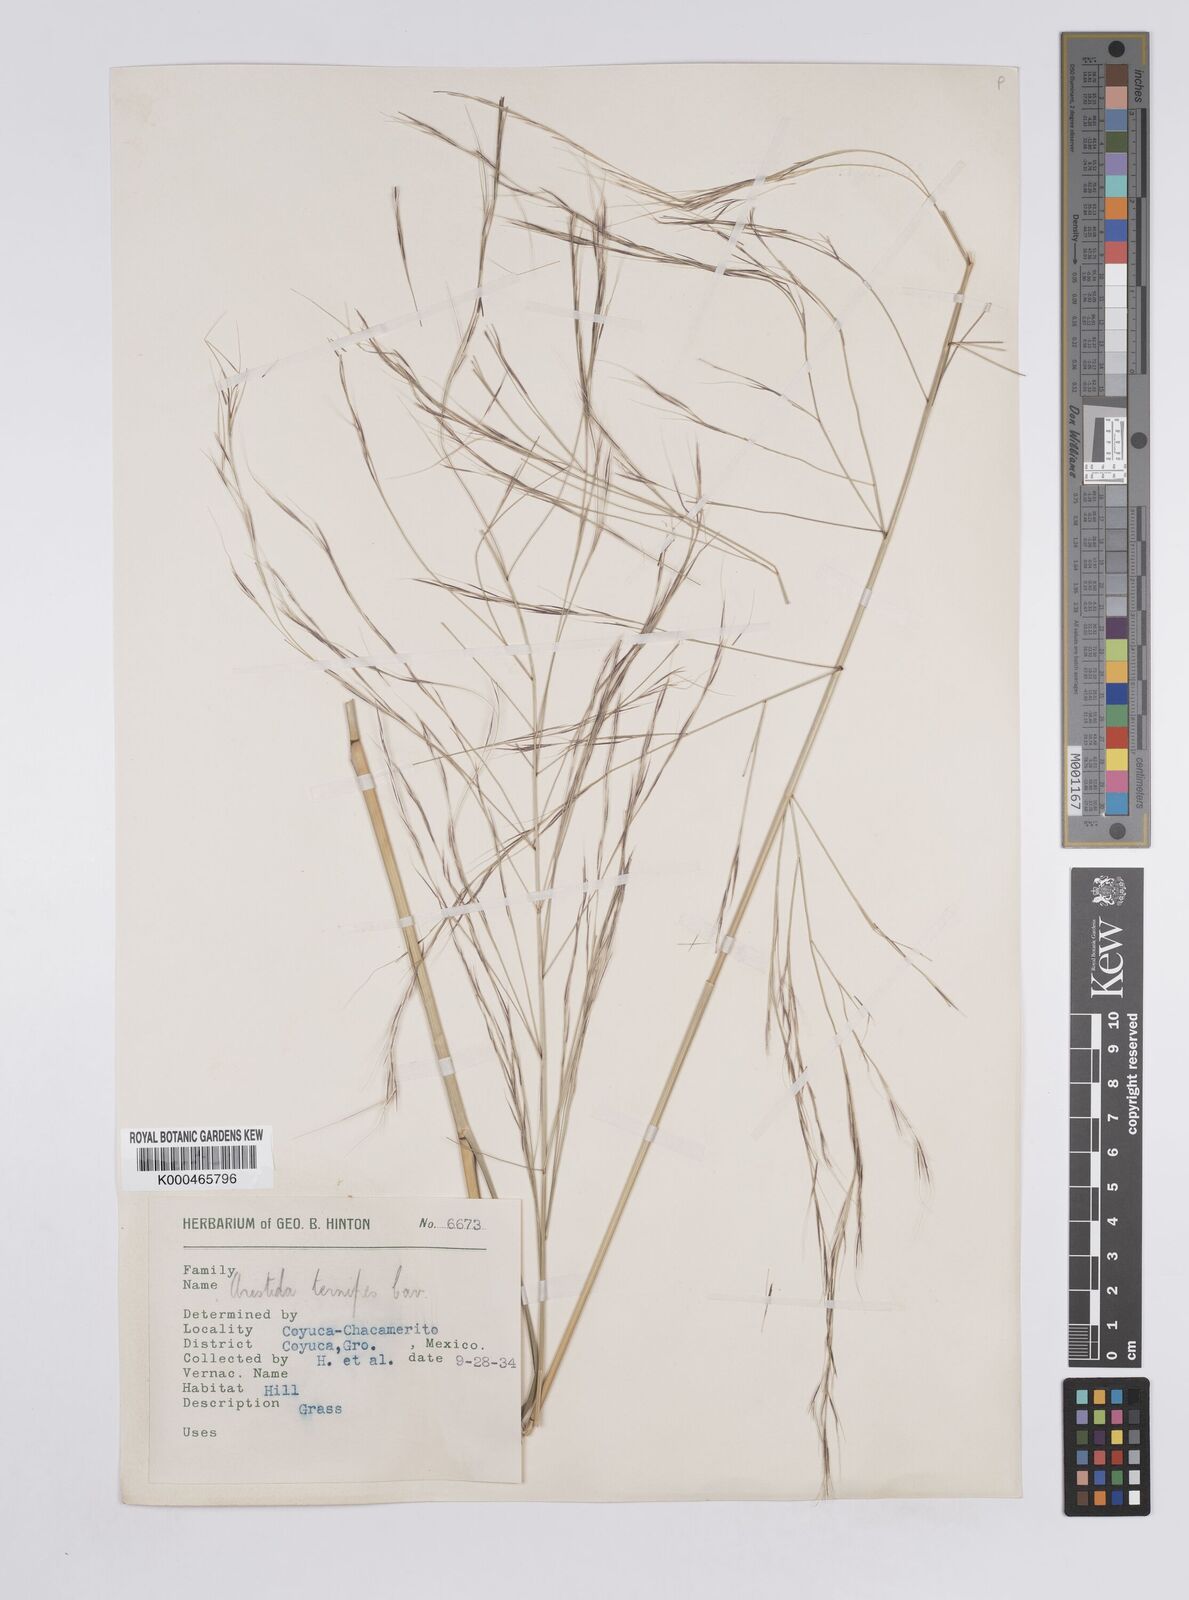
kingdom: Plantae
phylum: Tracheophyta
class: Liliopsida
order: Poales
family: Poaceae
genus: Aristida
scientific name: Aristida ternipes
